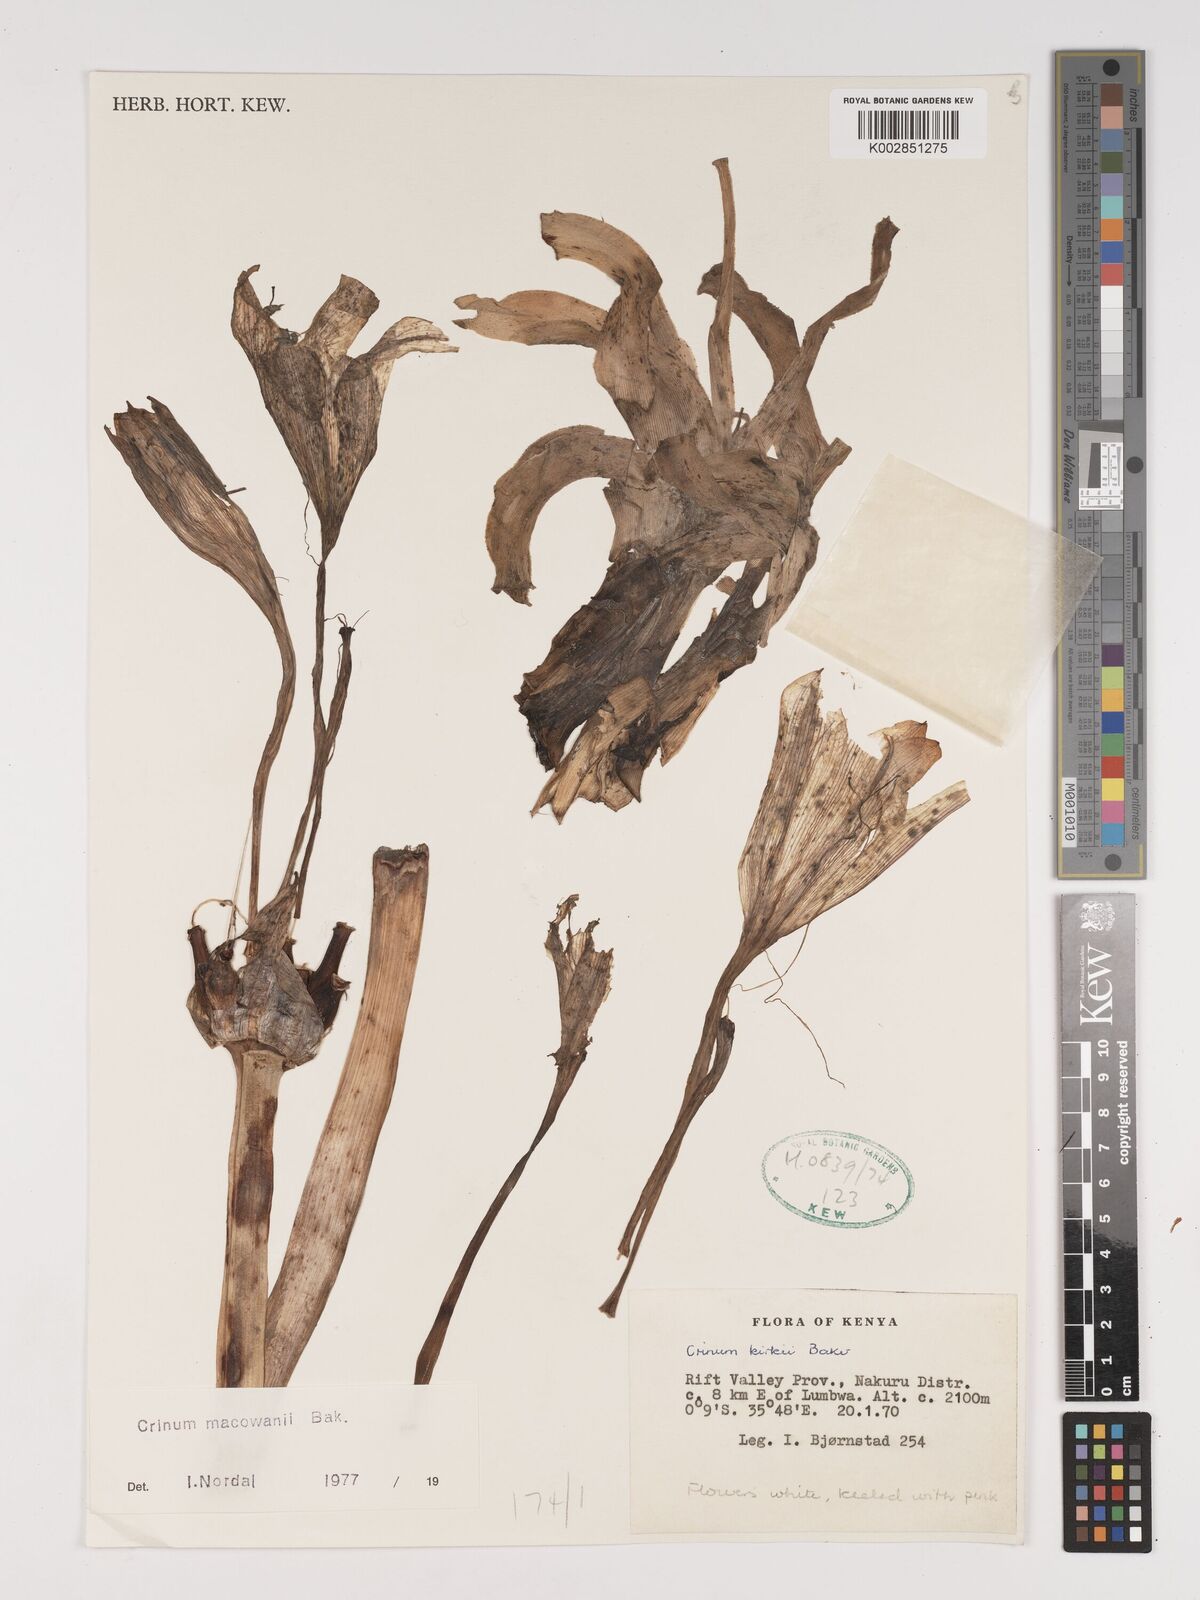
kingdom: Plantae
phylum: Tracheophyta
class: Liliopsida
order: Asparagales
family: Amaryllidaceae
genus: Crinum
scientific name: Crinum macowanii
